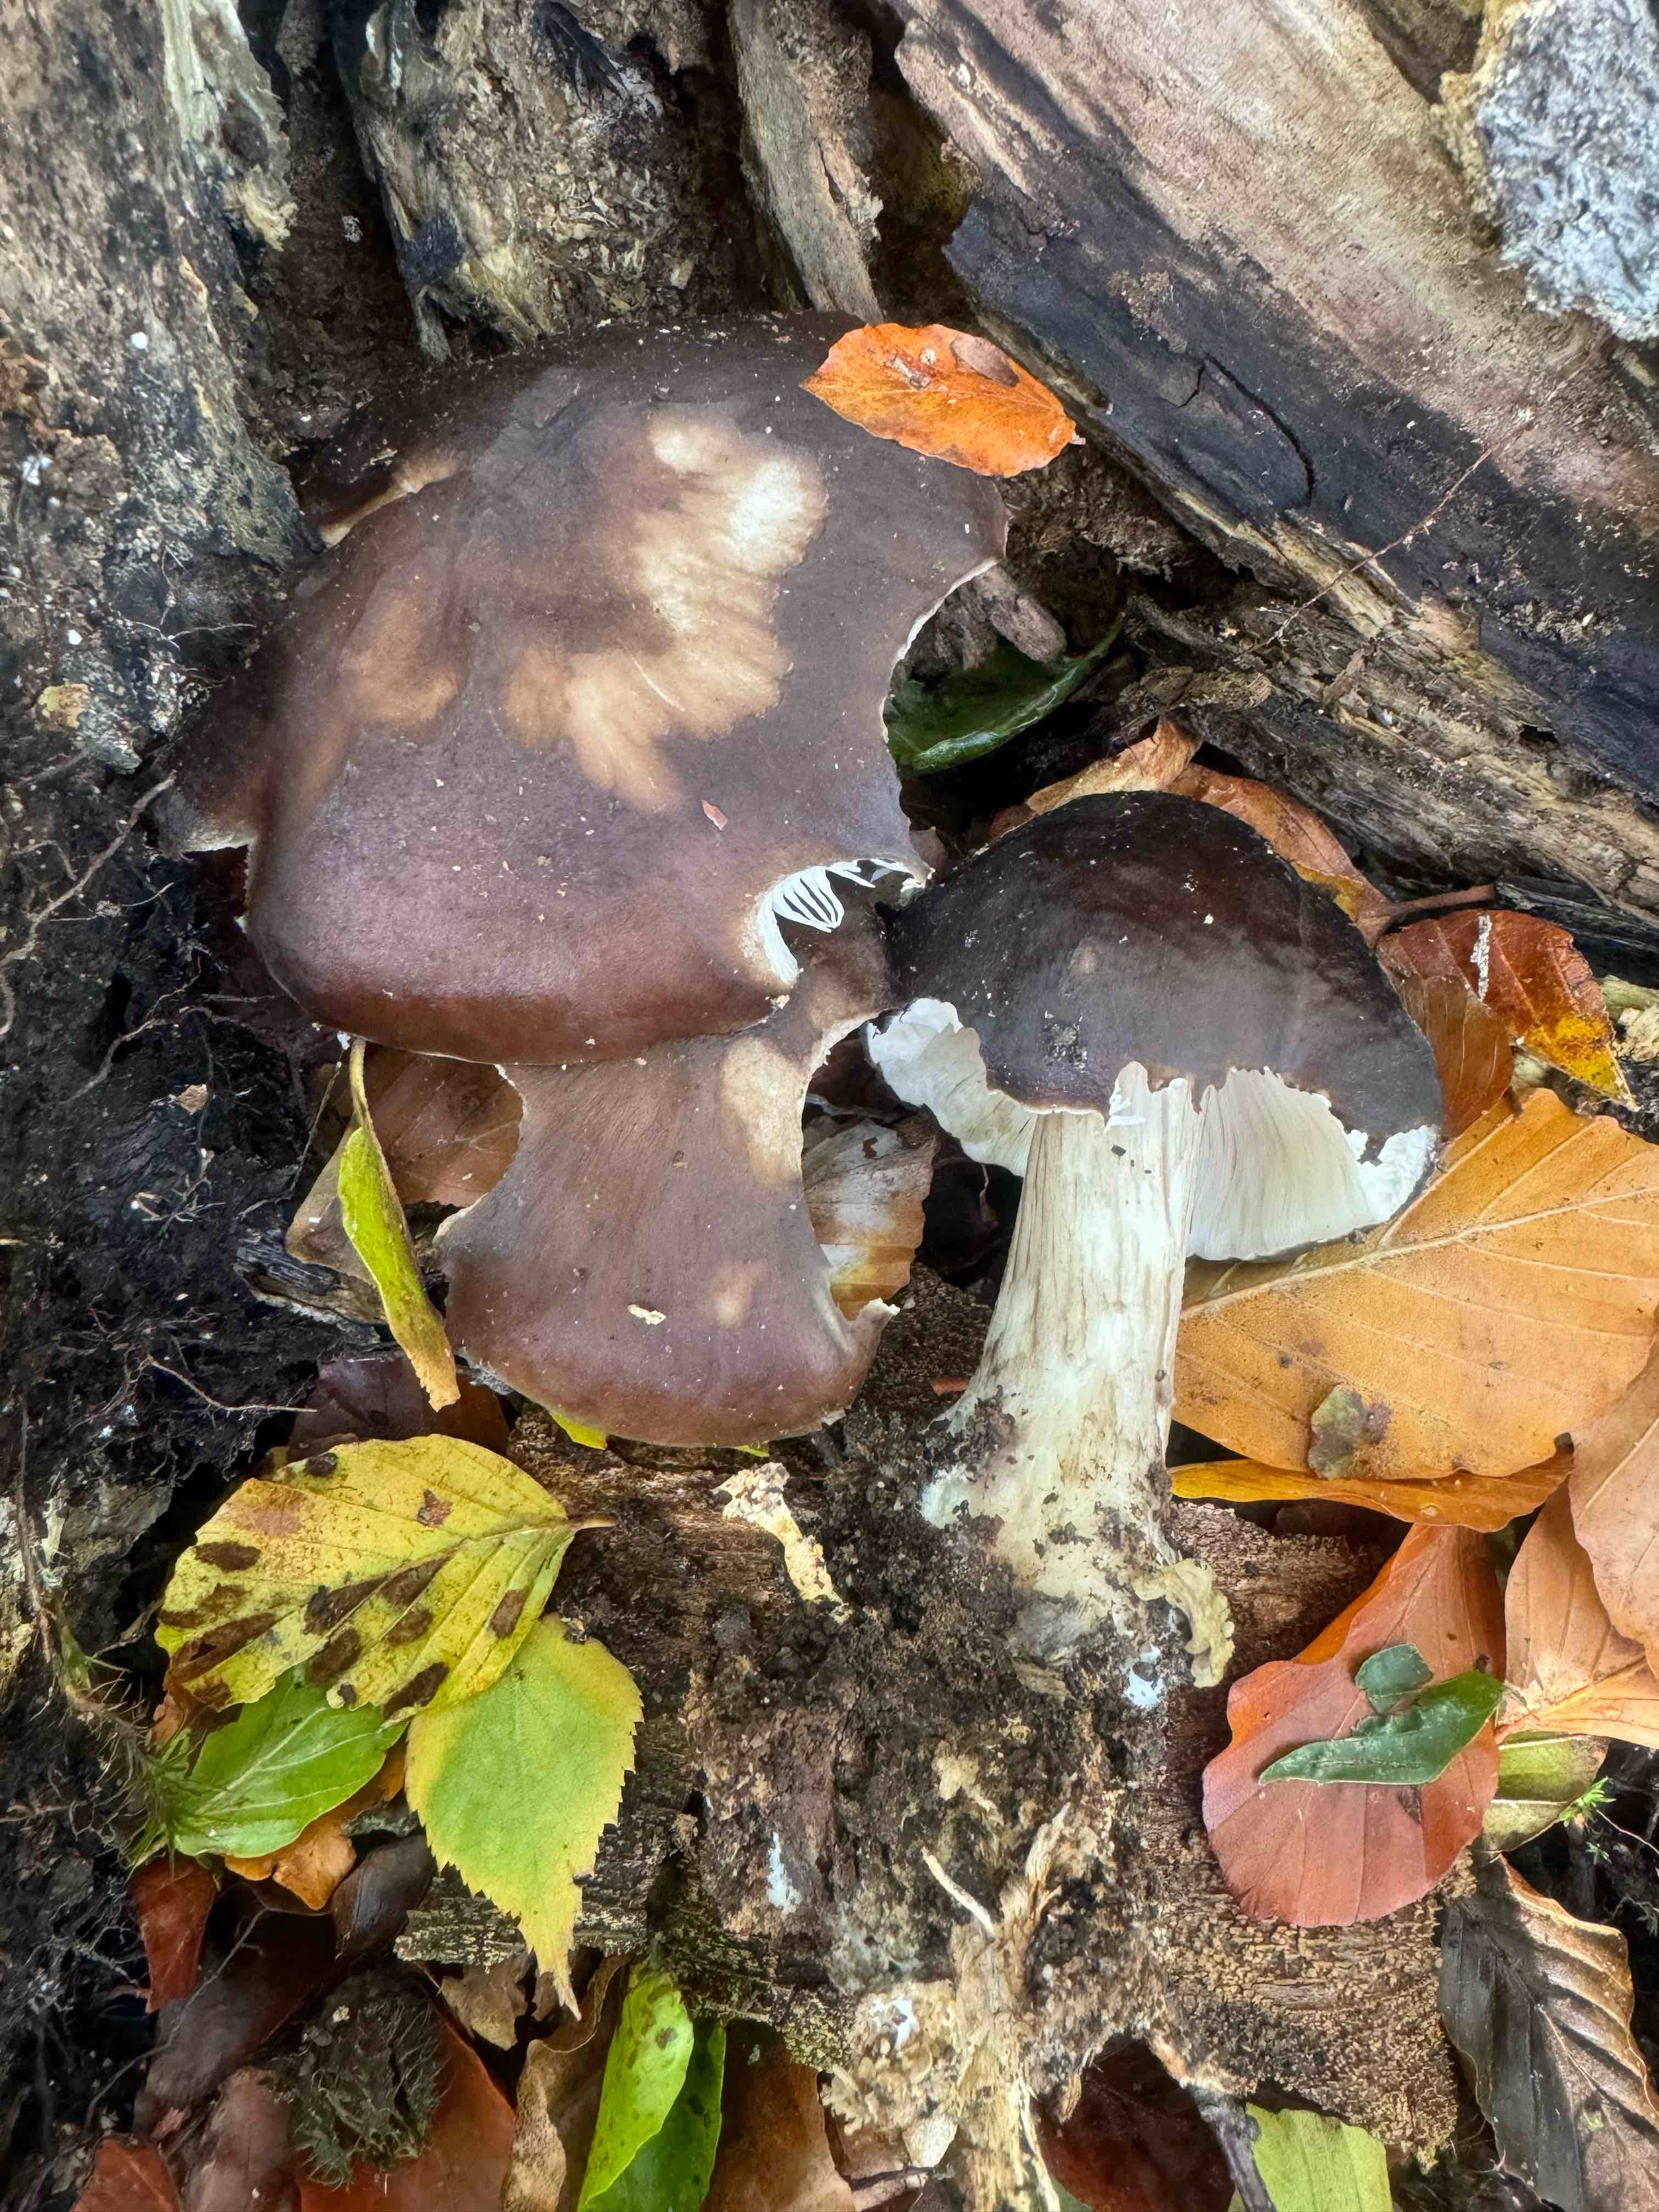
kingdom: Fungi
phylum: Basidiomycota
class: Agaricomycetes
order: Agaricales
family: Pluteaceae
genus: Pluteus
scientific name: Pluteus cervinus
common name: sodfarvet skærmhat
